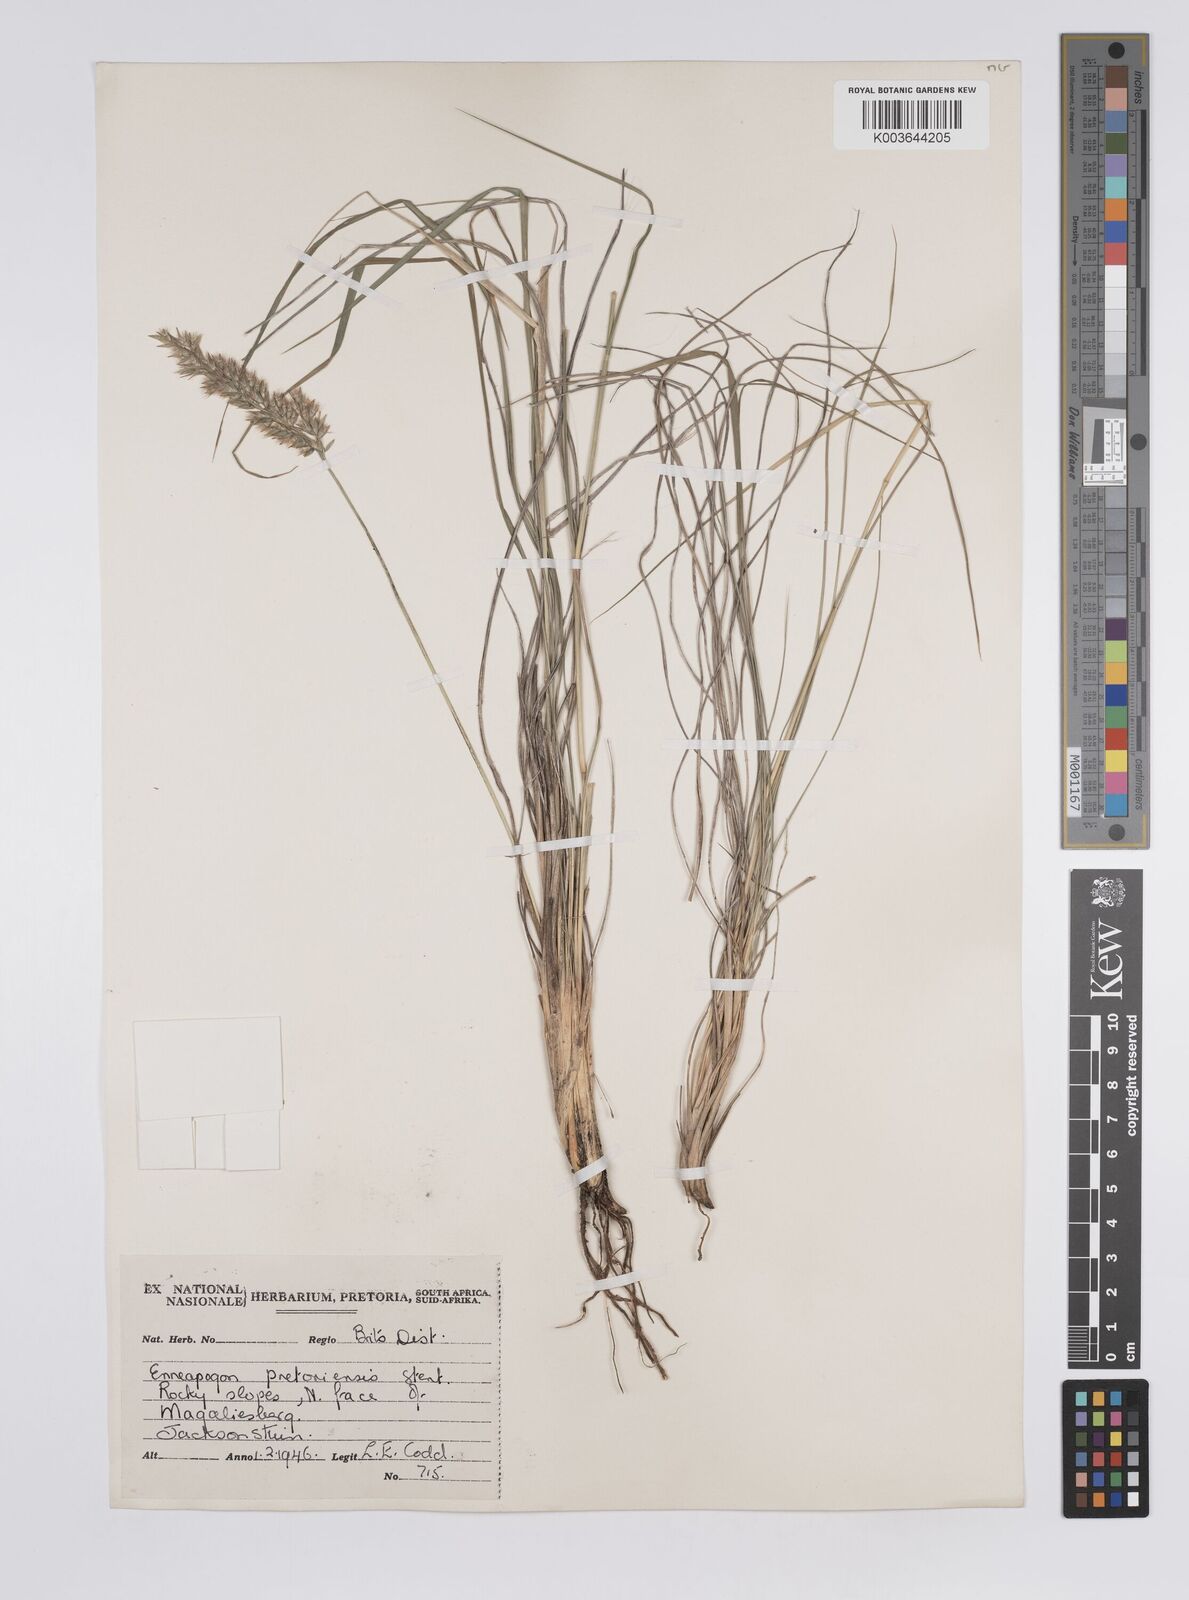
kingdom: Plantae
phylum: Tracheophyta
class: Liliopsida
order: Poales
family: Poaceae
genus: Enneapogon
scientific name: Enneapogon pretoriensis
